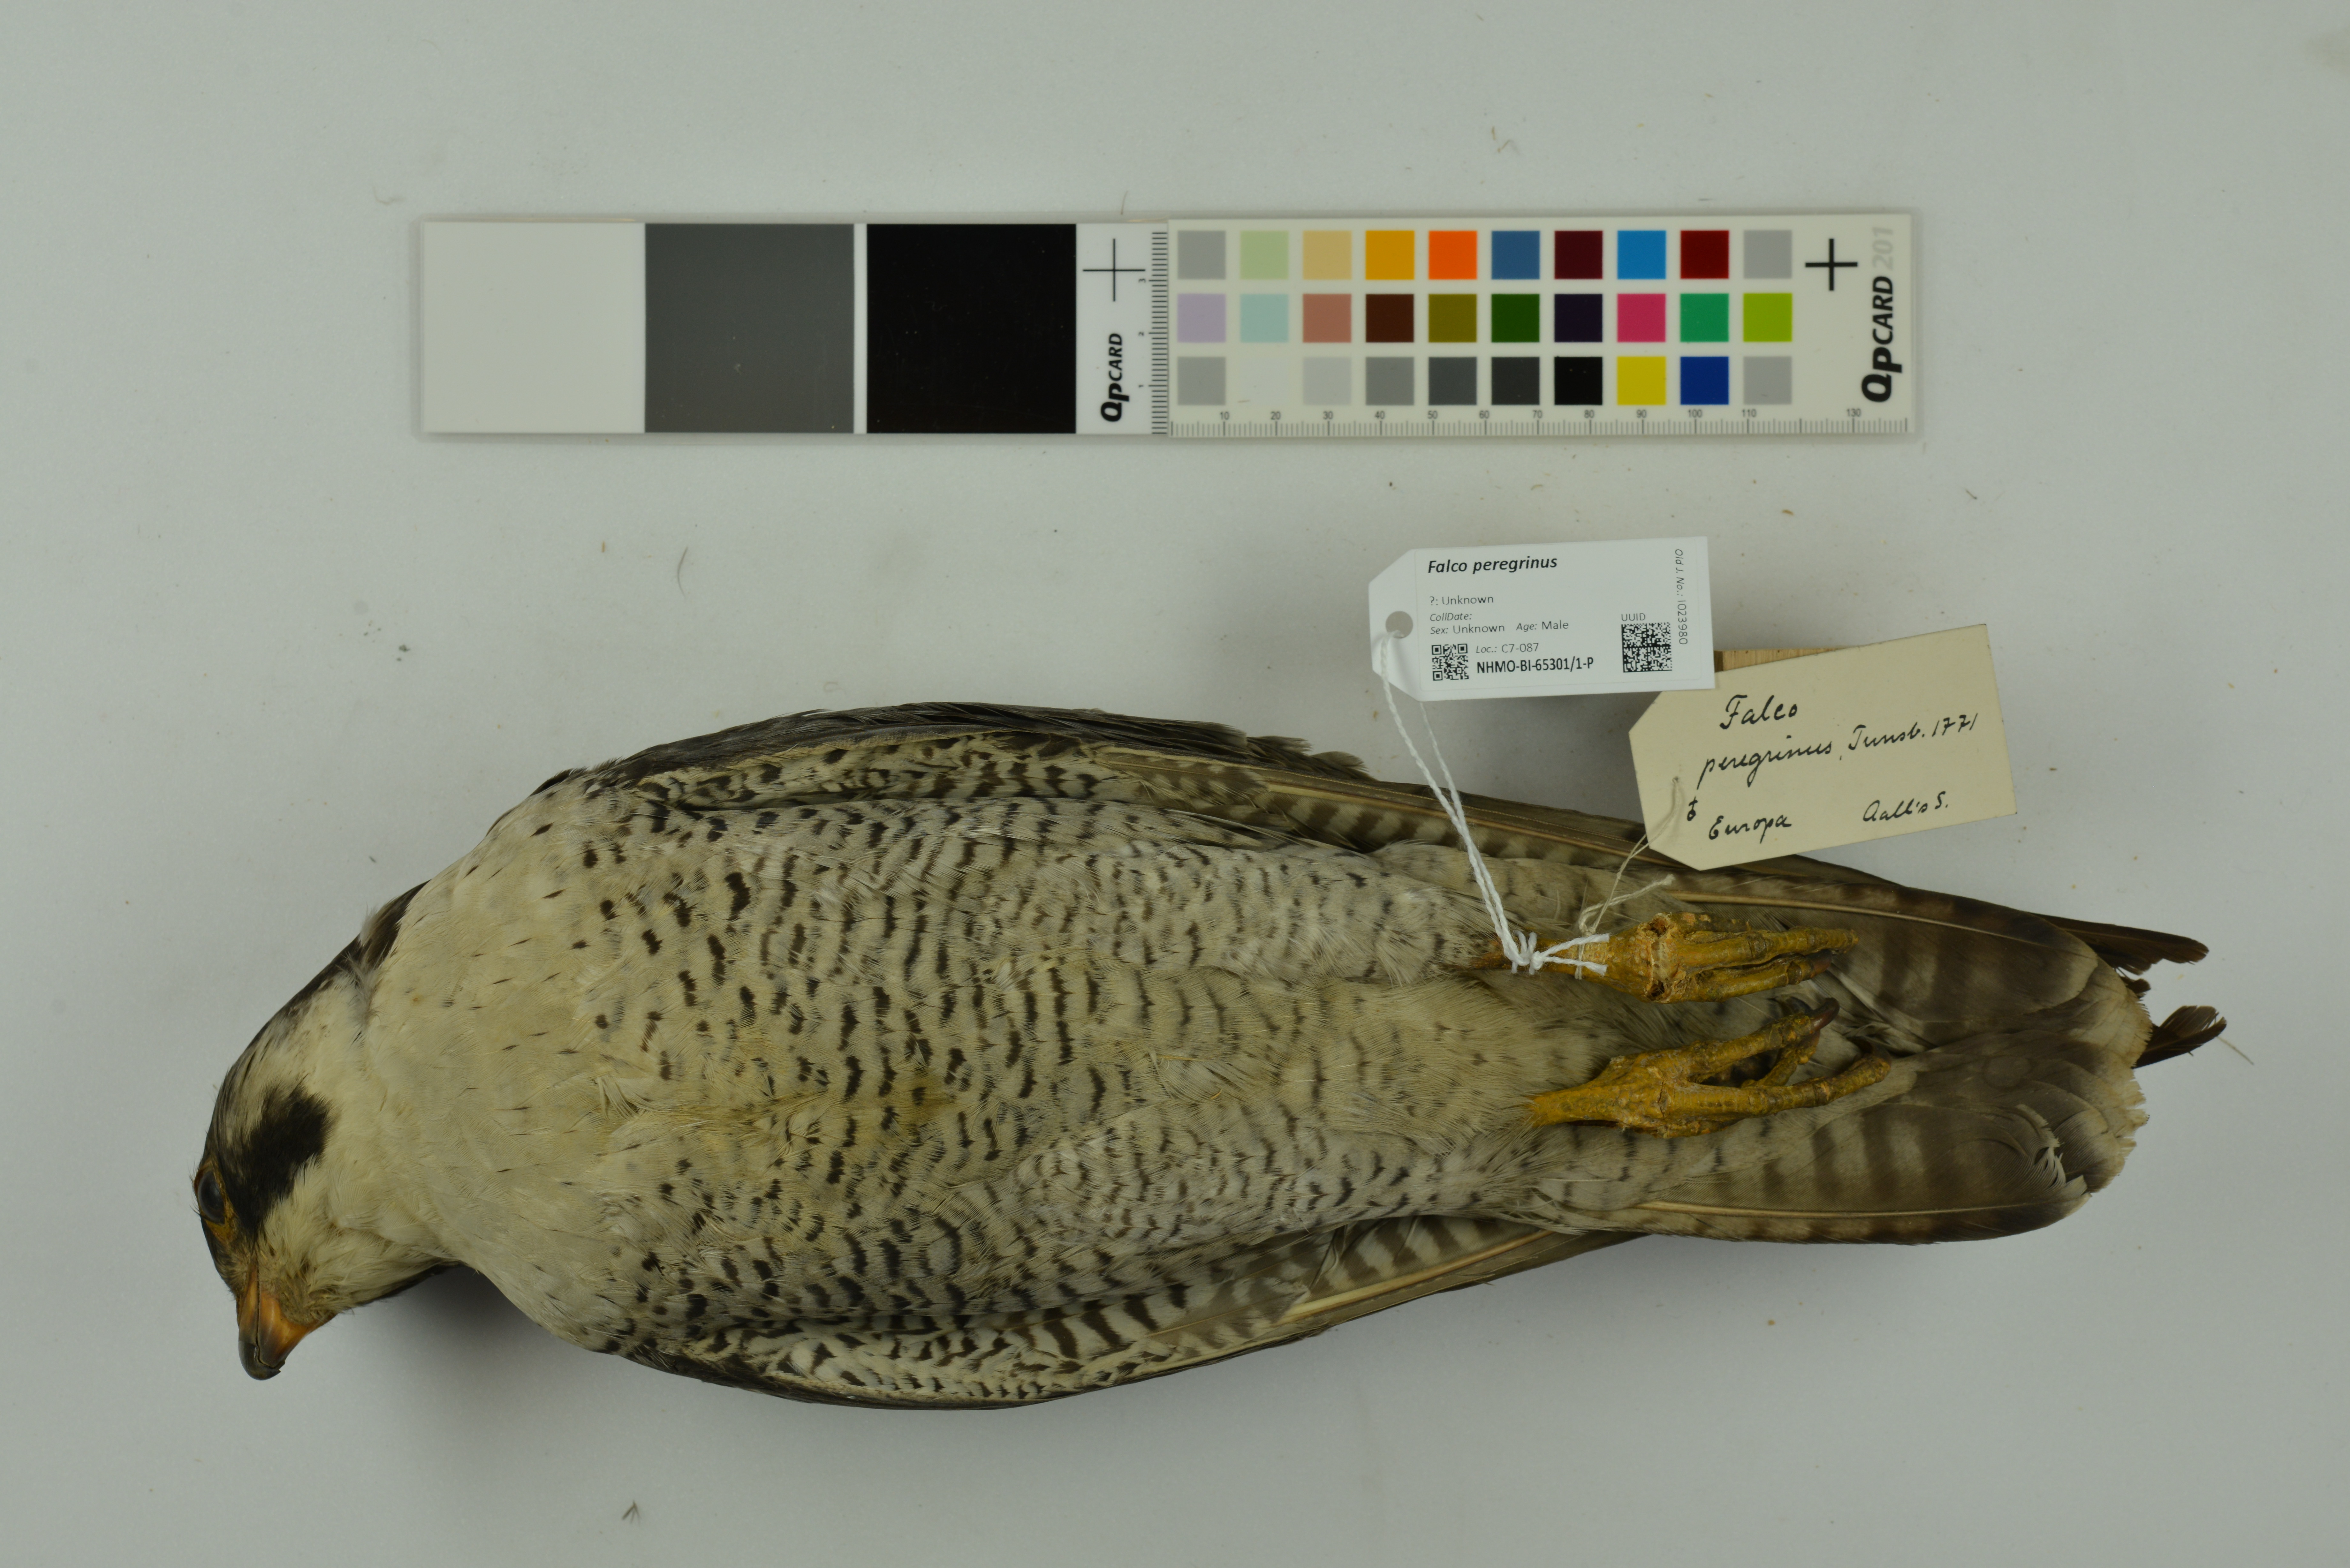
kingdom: Animalia
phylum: Chordata
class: Aves
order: Falconiformes
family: Falconidae
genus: Falco
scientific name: Falco peregrinus
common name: Peregrine falcon
